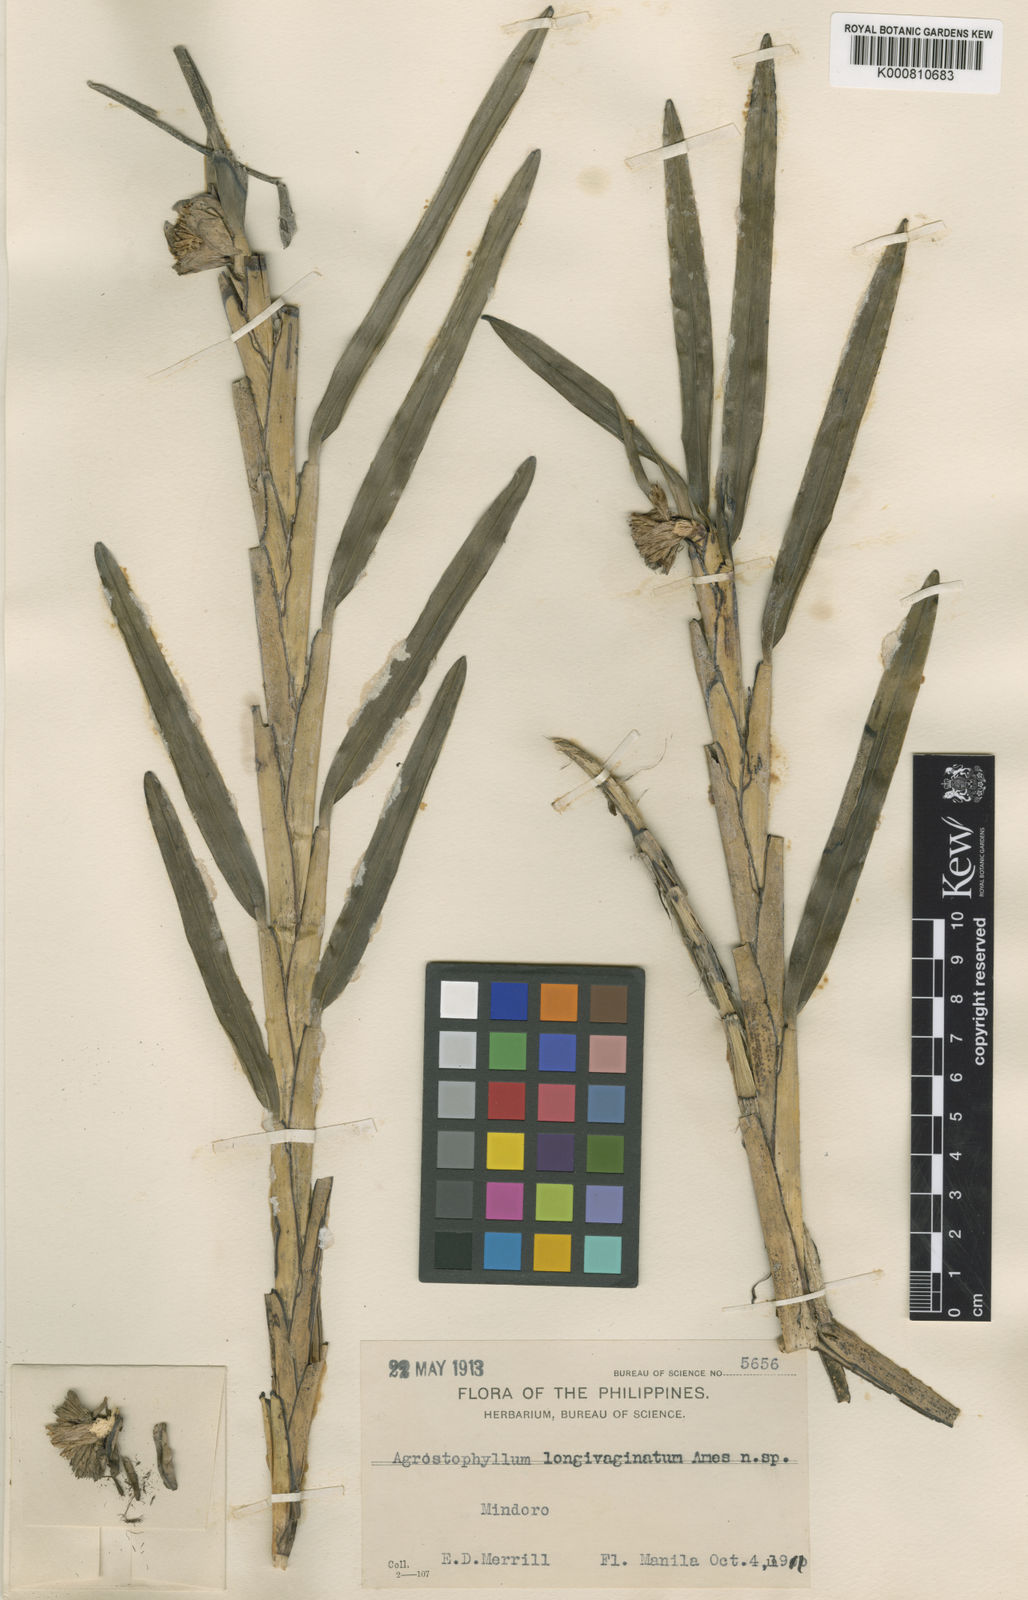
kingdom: Plantae
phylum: Tracheophyta
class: Liliopsida
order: Asparagales
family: Orchidaceae
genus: Agrostophyllum
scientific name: Agrostophyllum longivaginatum
